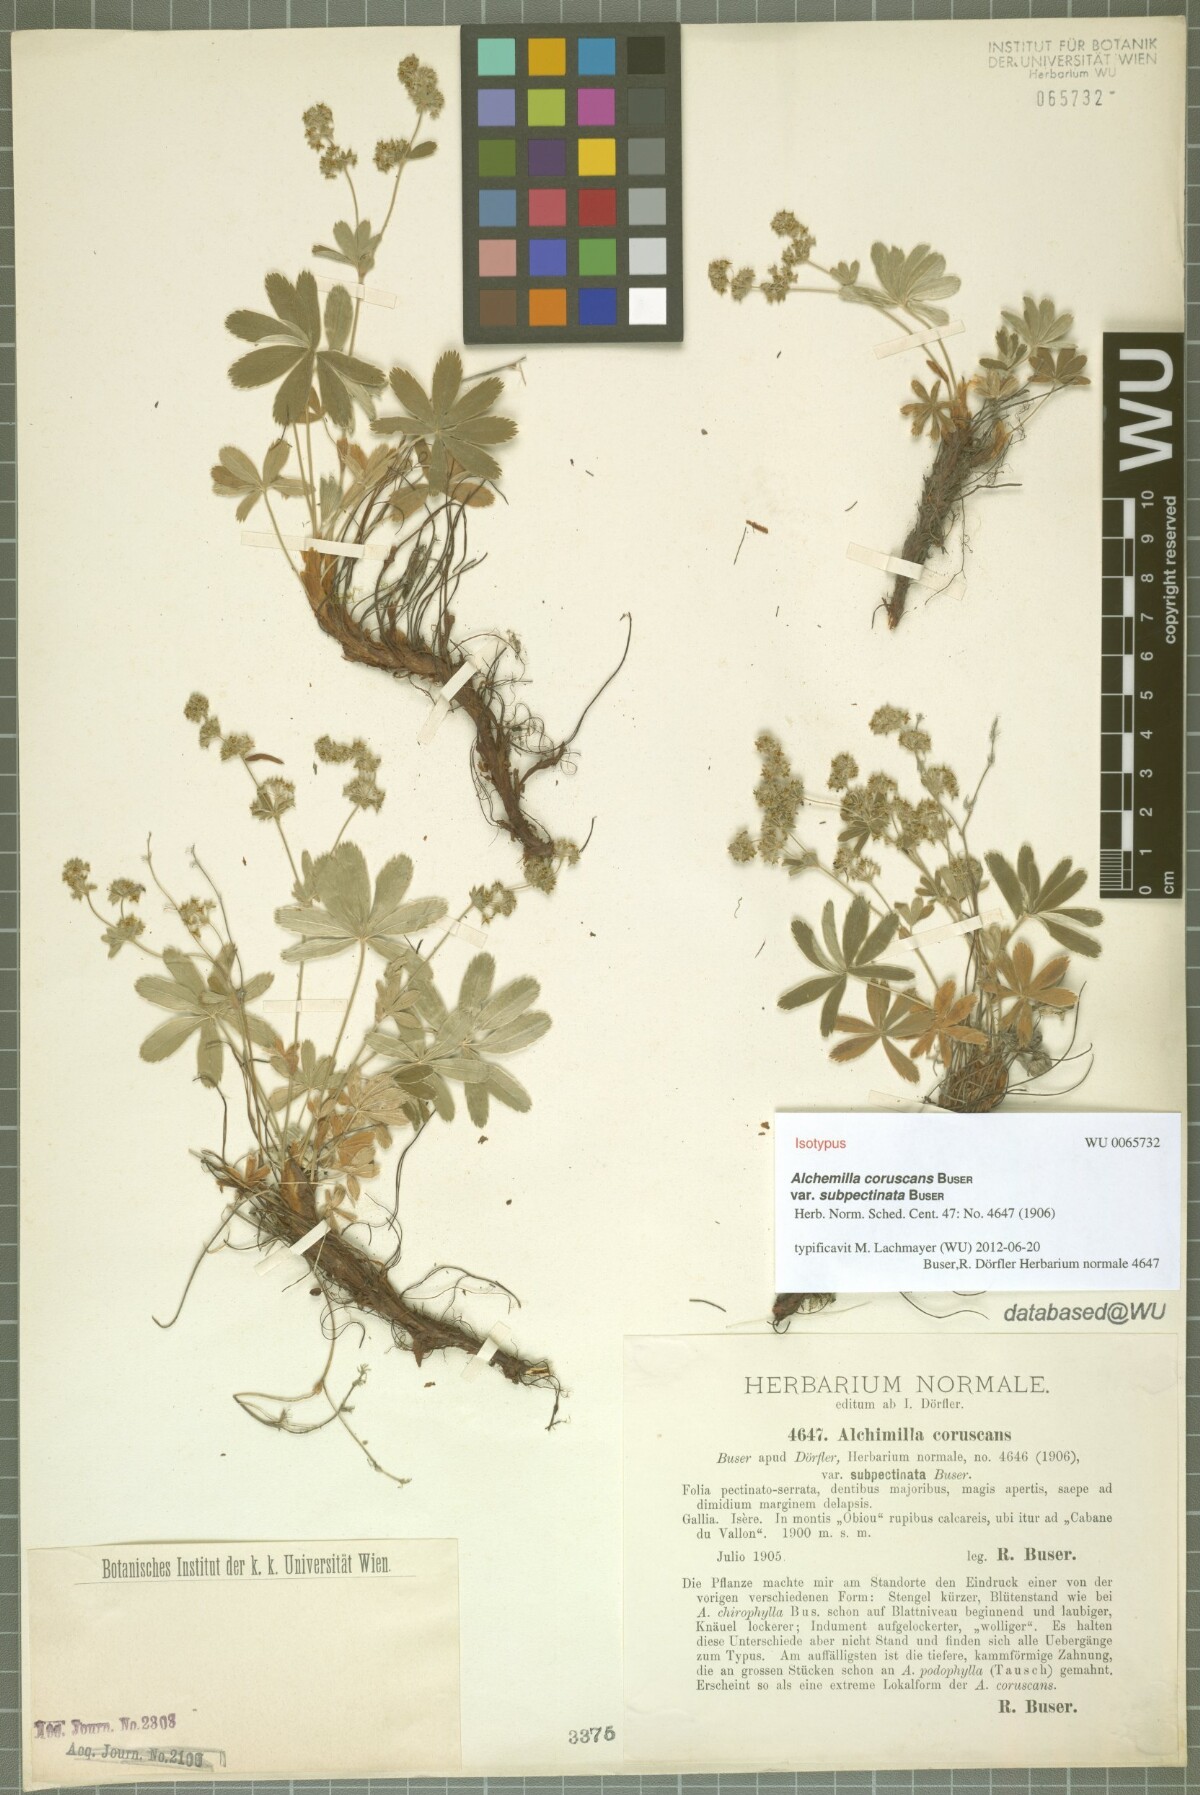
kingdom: Plantae
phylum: Tracheophyta
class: Magnoliopsida
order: Rosales
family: Rosaceae
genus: Alchemilla
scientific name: Alchemilla coruscans
